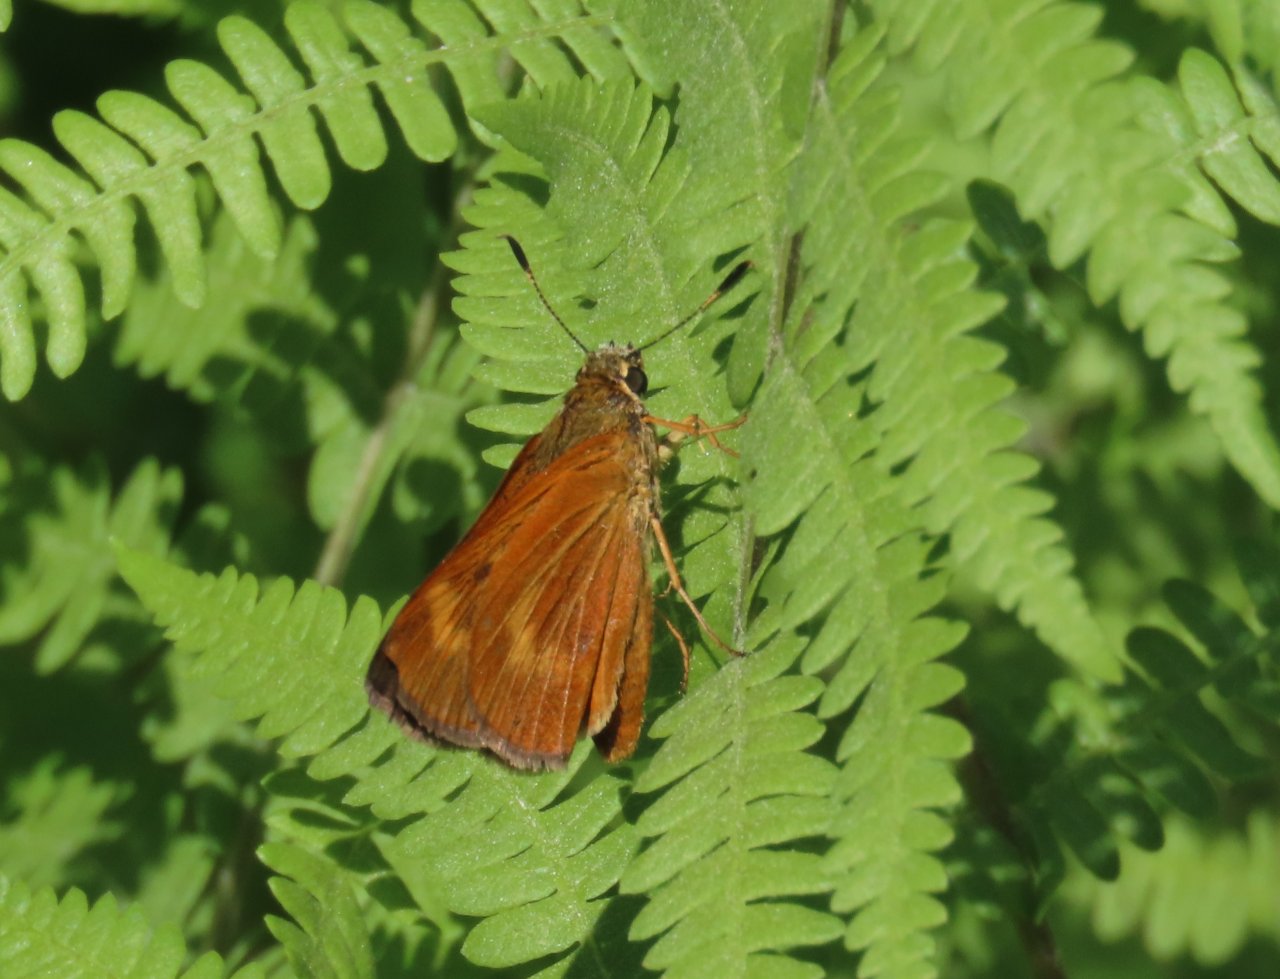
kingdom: Animalia
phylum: Arthropoda
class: Insecta
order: Lepidoptera
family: Hesperiidae
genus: Problema
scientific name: Problema byssus
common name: Byssus Skipper
